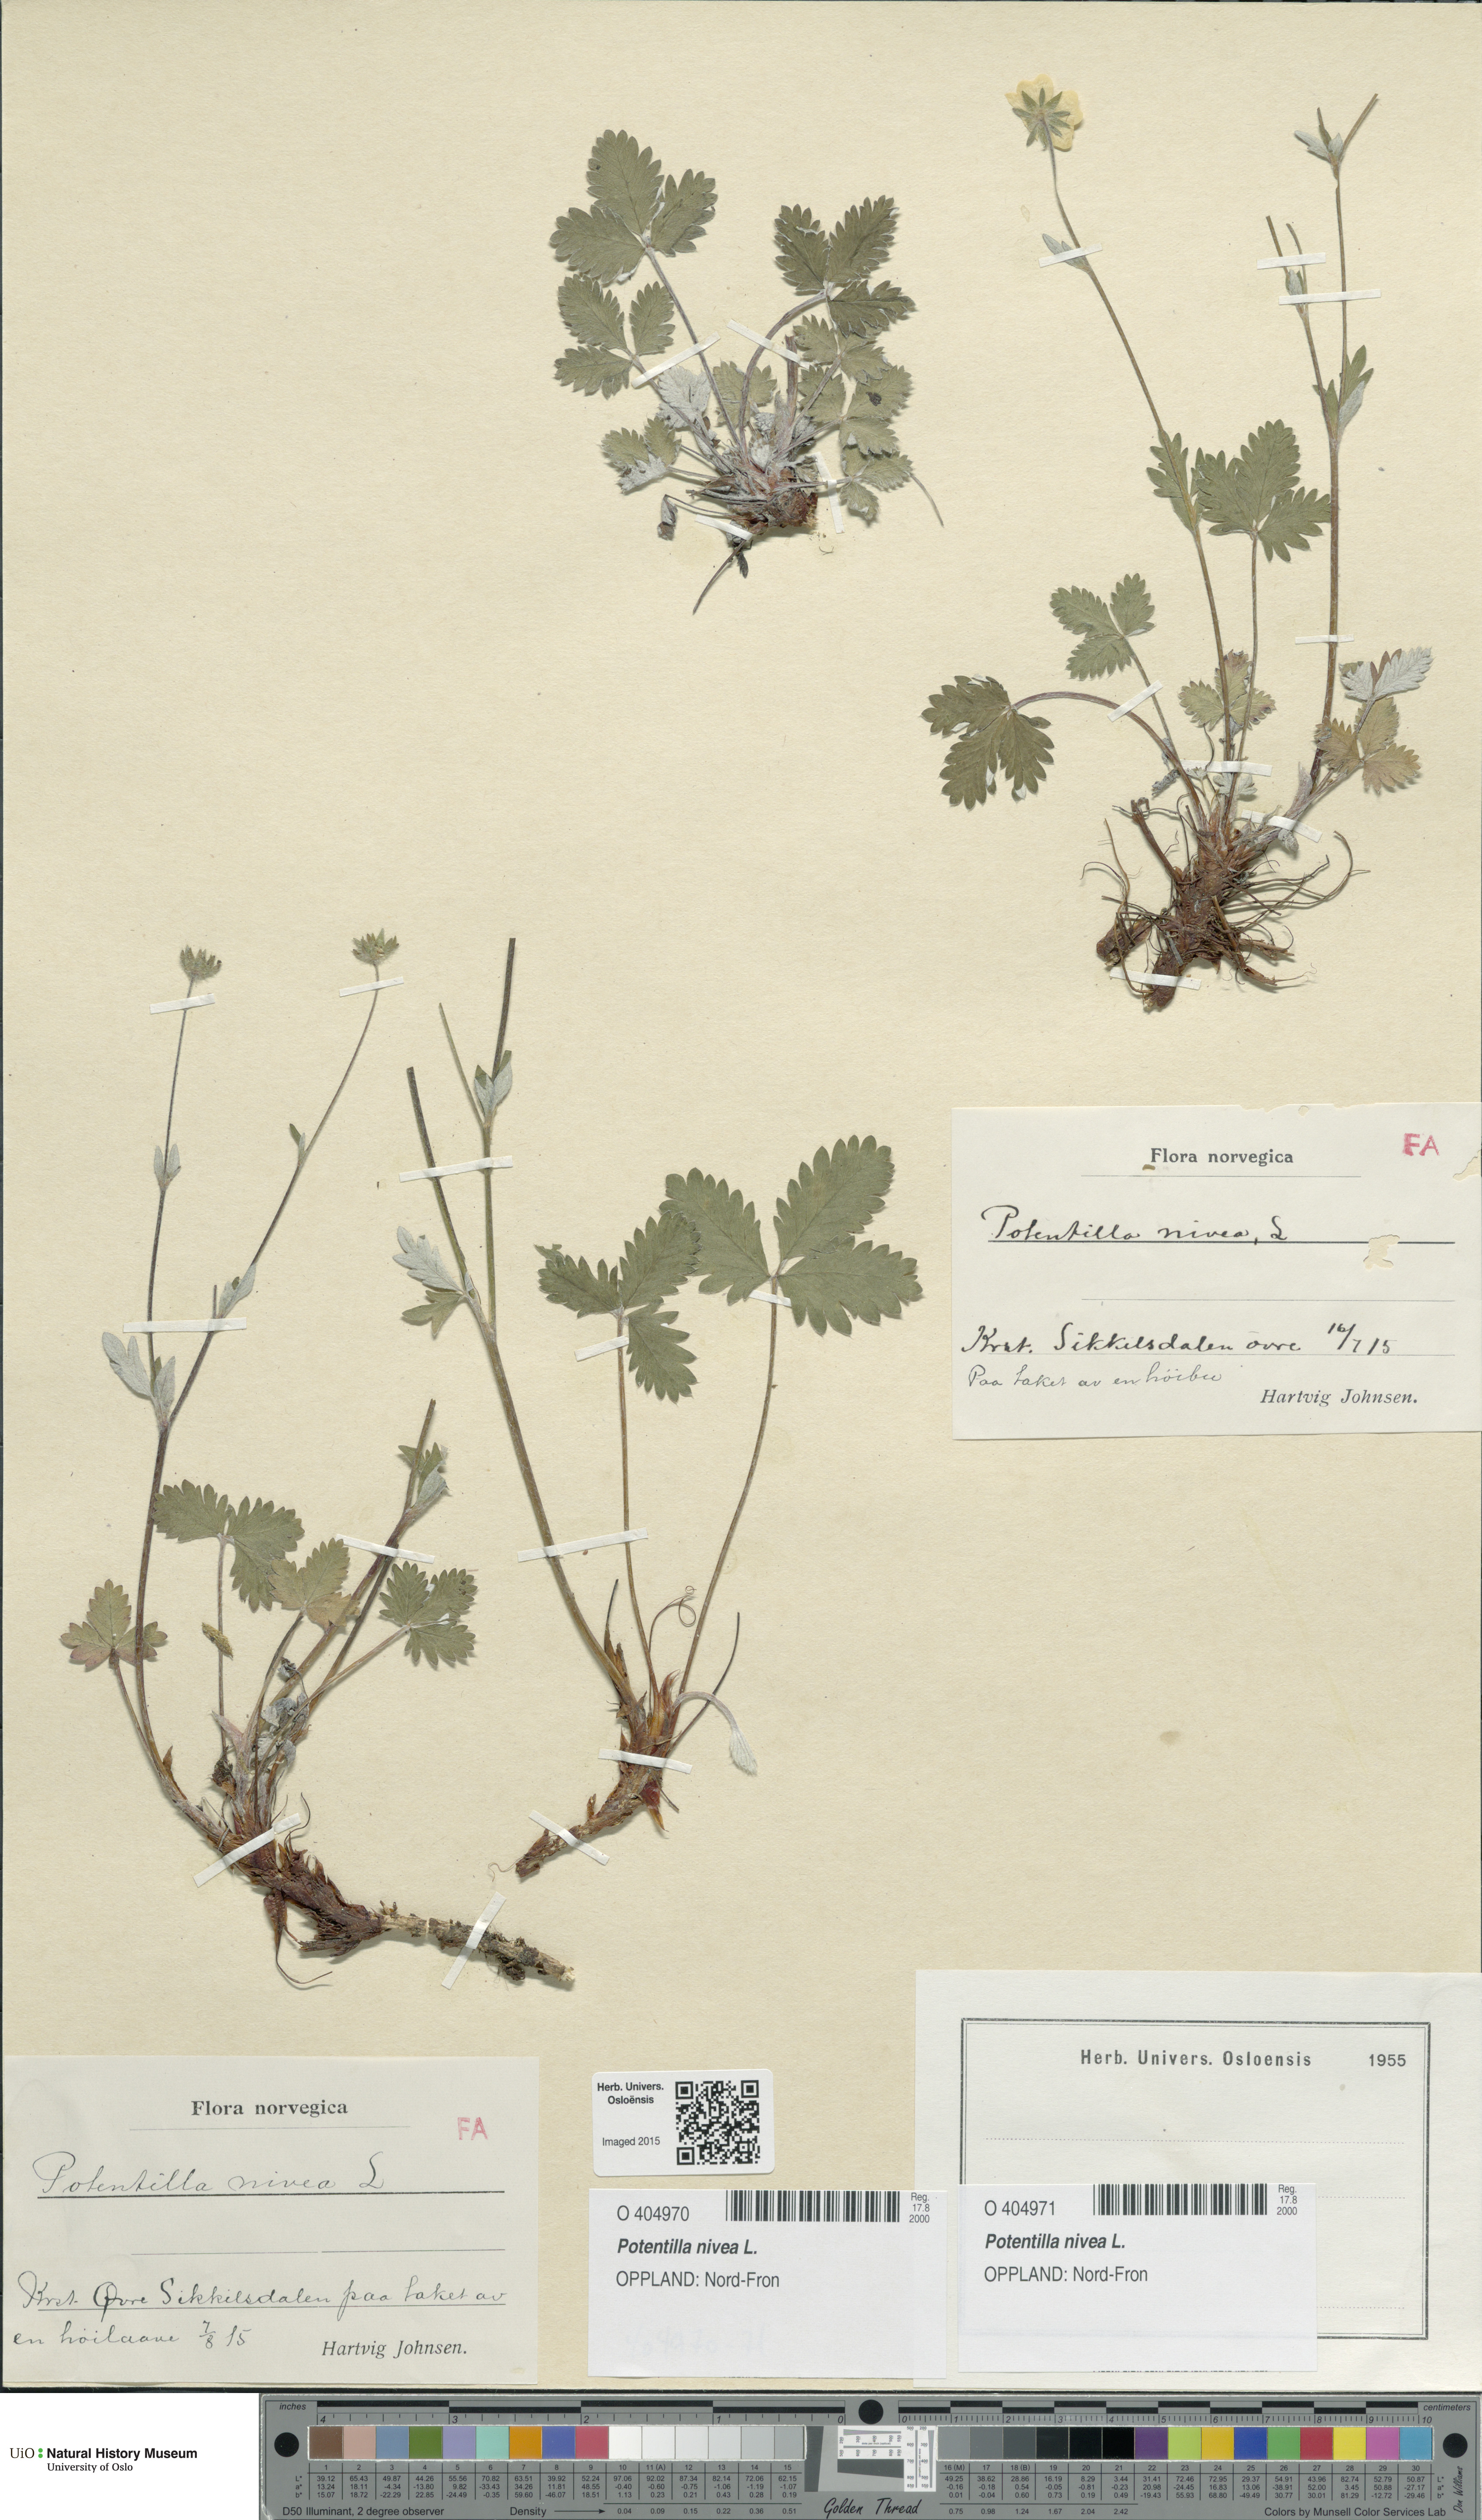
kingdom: Plantae
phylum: Tracheophyta
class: Magnoliopsida
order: Rosales
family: Rosaceae
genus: Potentilla
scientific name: Potentilla arenosa
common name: Bluff cinquefoil
